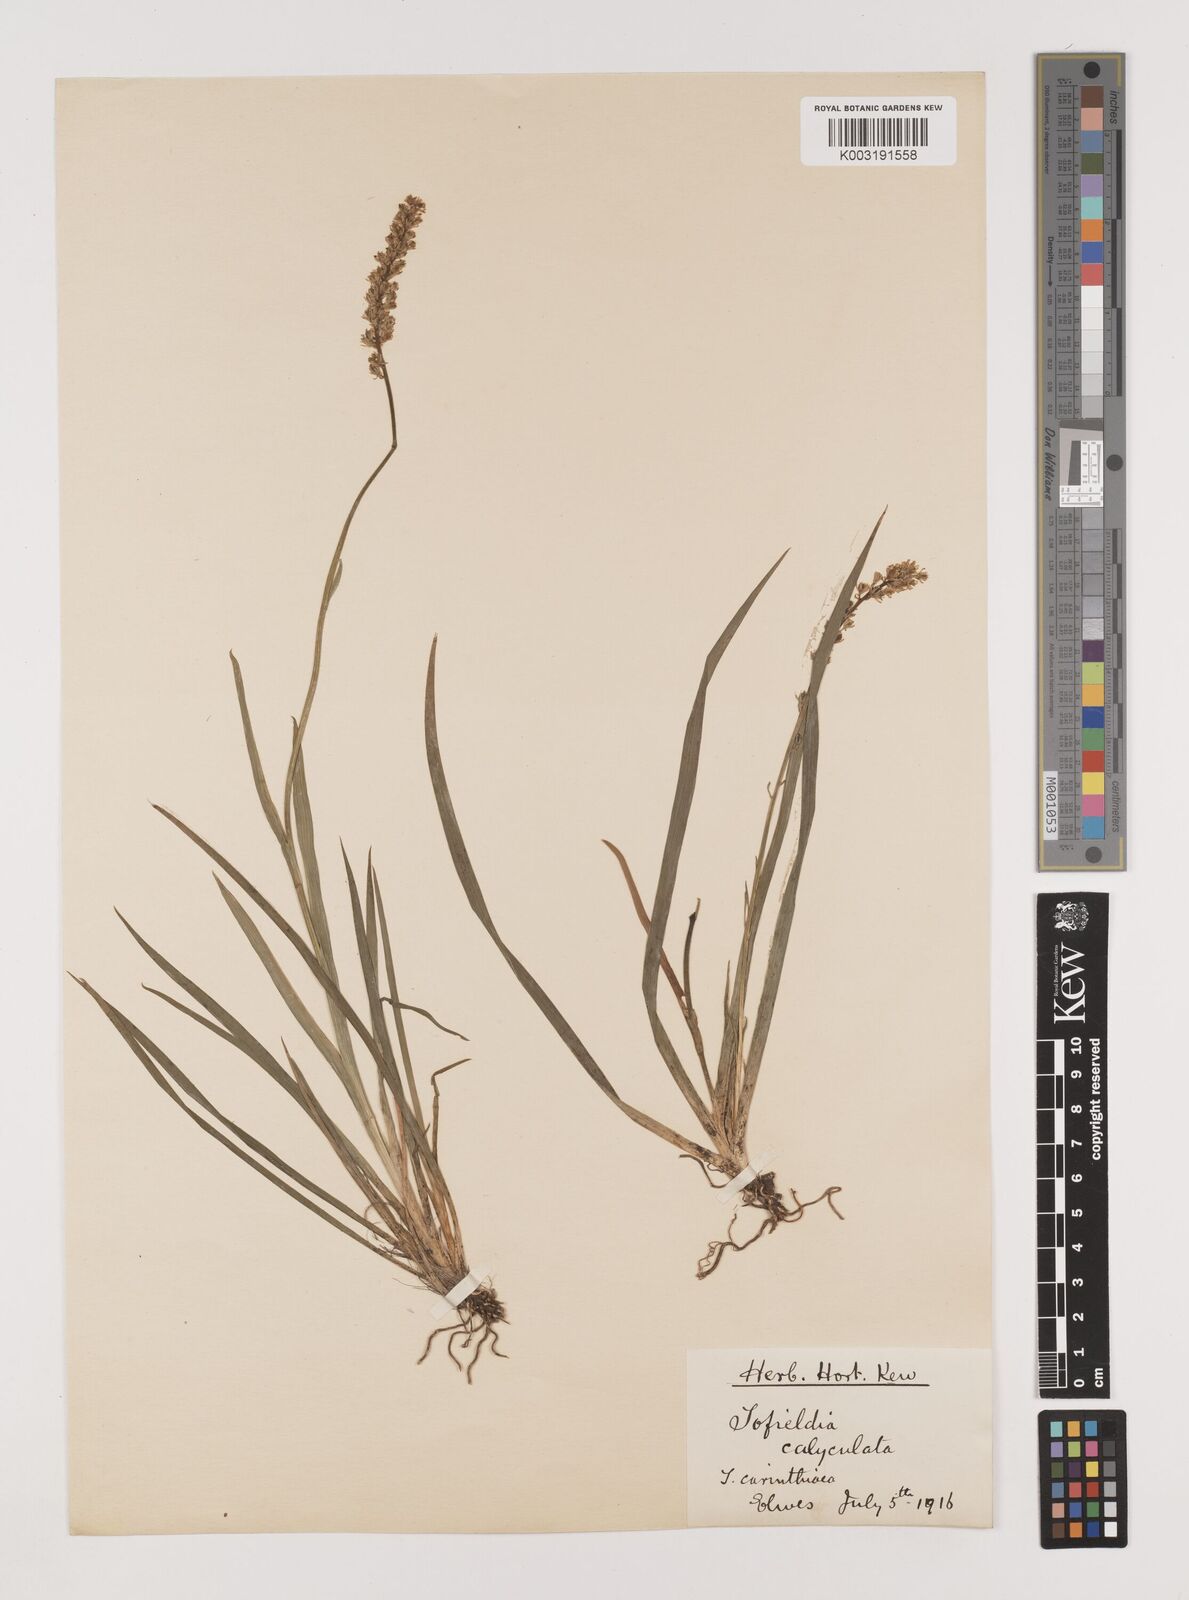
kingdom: Plantae
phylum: Tracheophyta
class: Liliopsida
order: Alismatales
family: Tofieldiaceae
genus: Tofieldia
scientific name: Tofieldia calyculata
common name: German-asphodel
